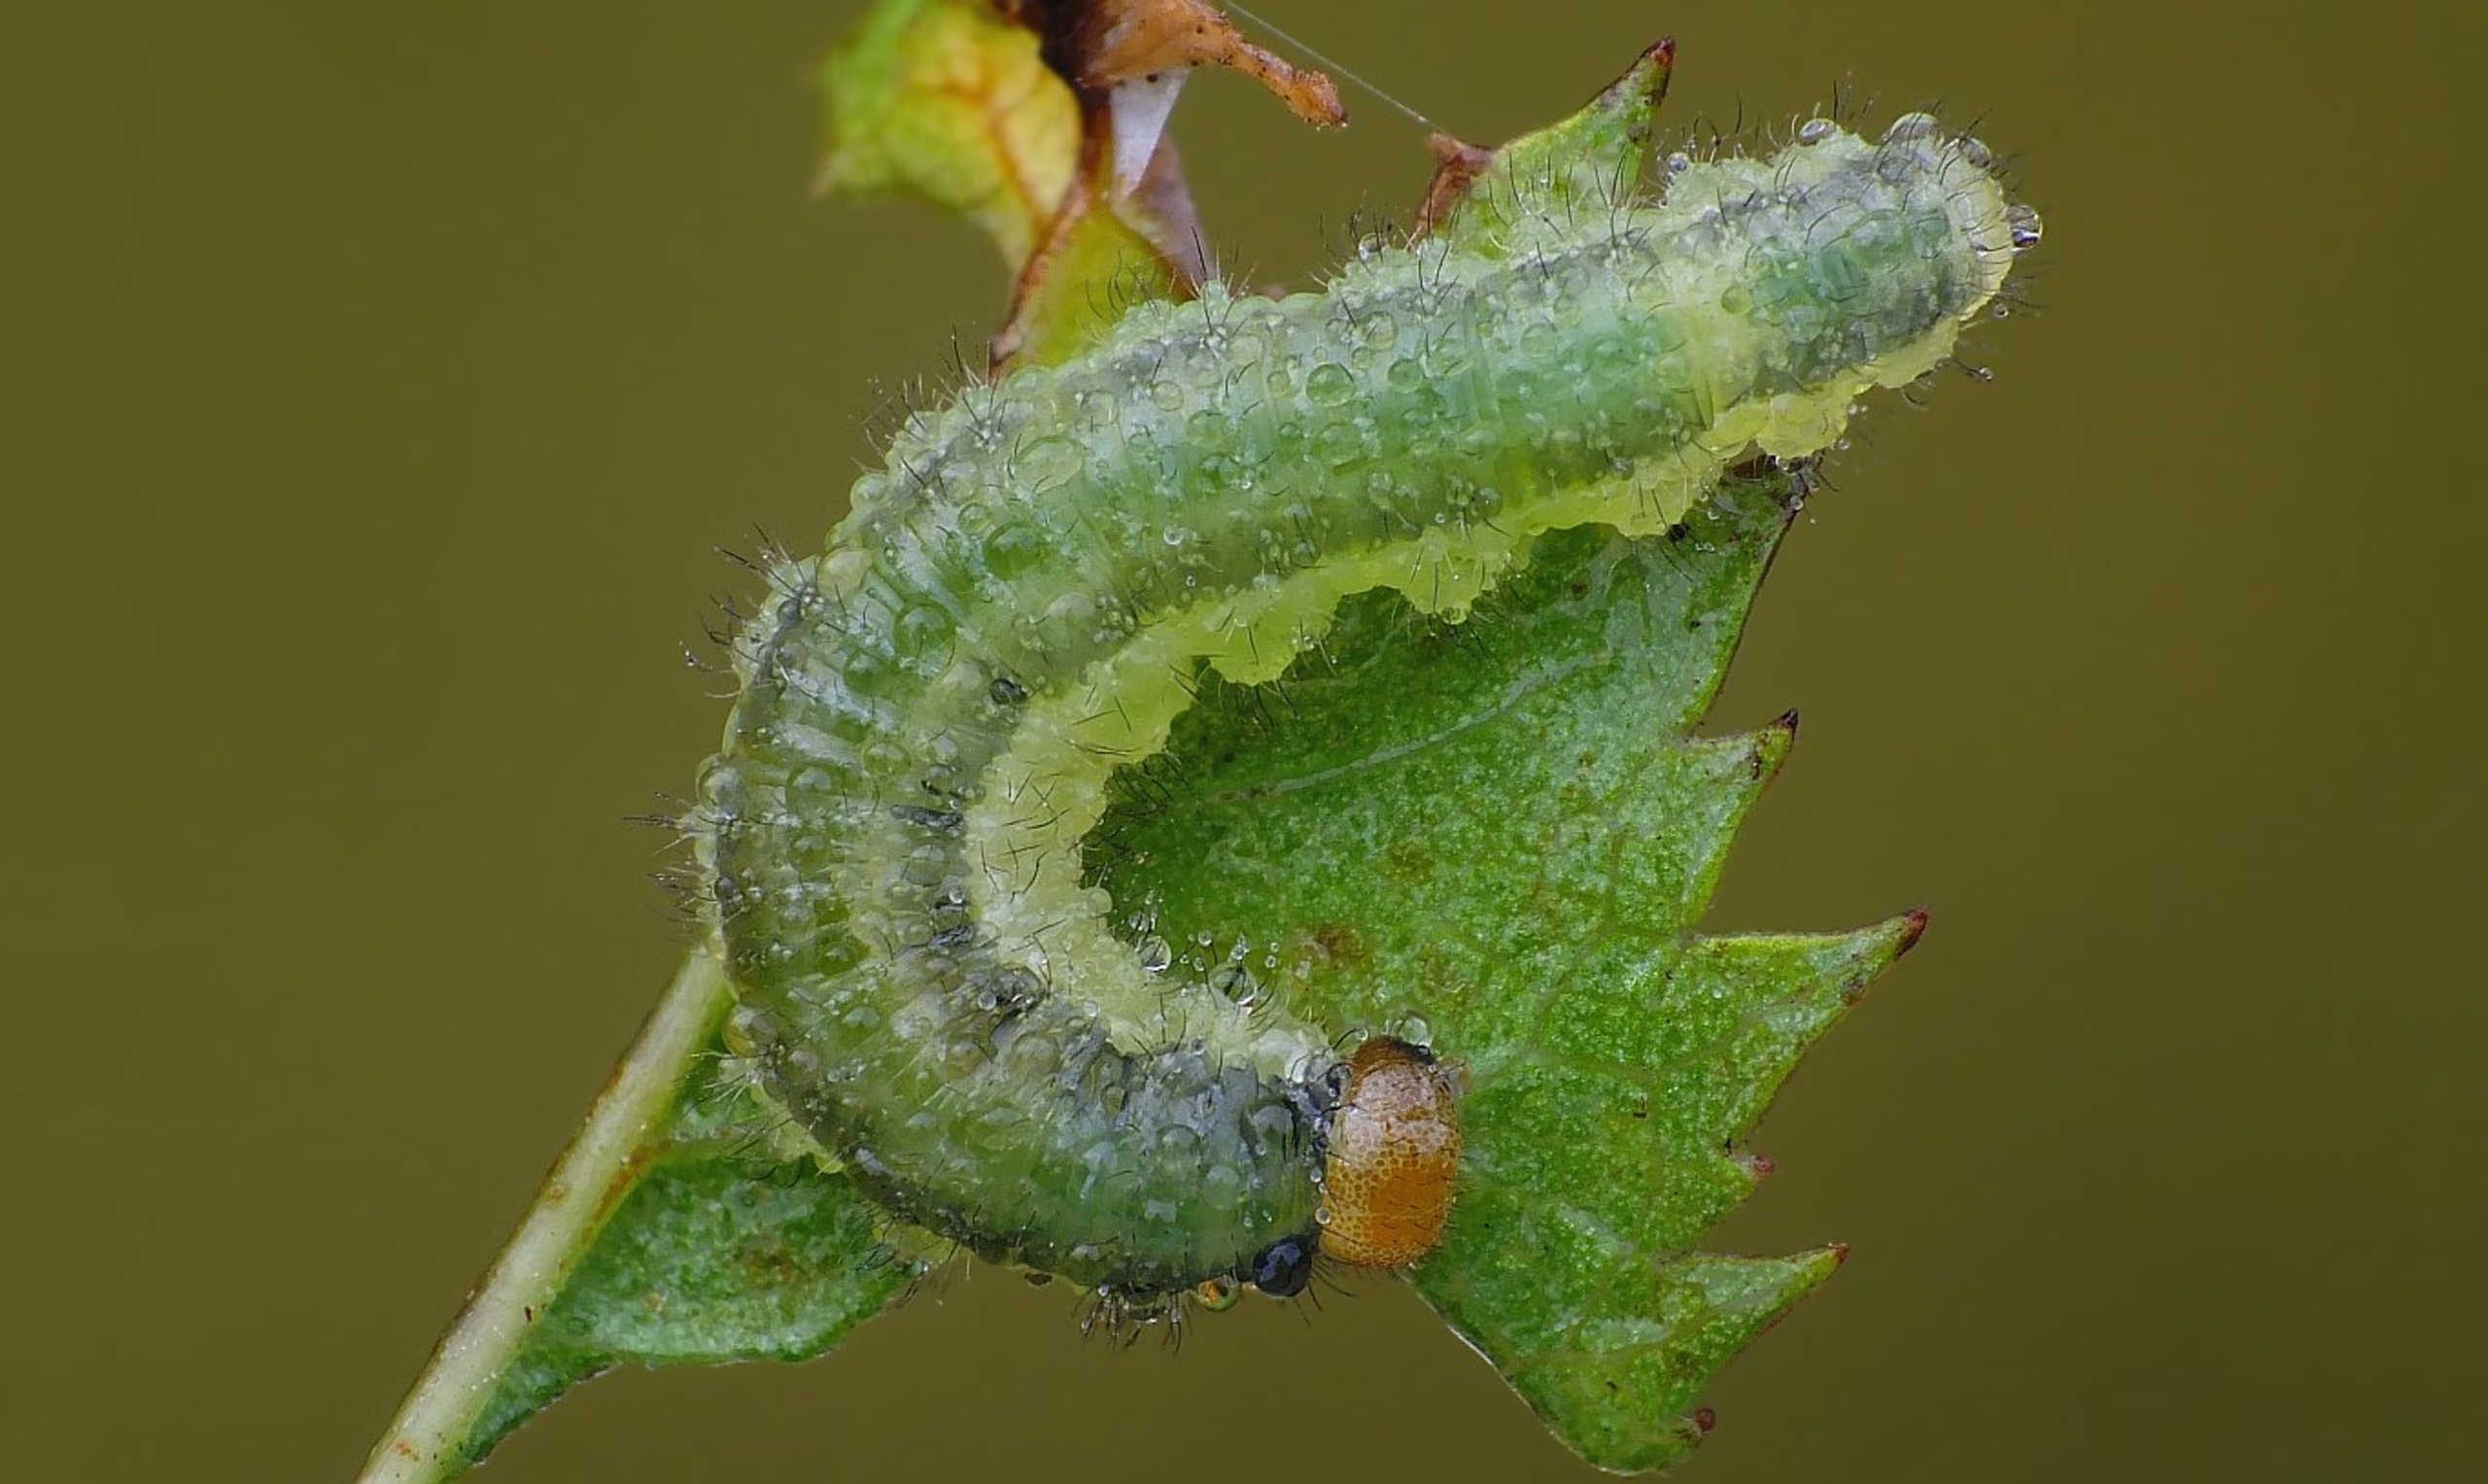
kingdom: Animalia
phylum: Arthropoda
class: Insecta
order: Hymenoptera
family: Tenthredinidae
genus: Cladius
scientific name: Cladius pectinicornis
